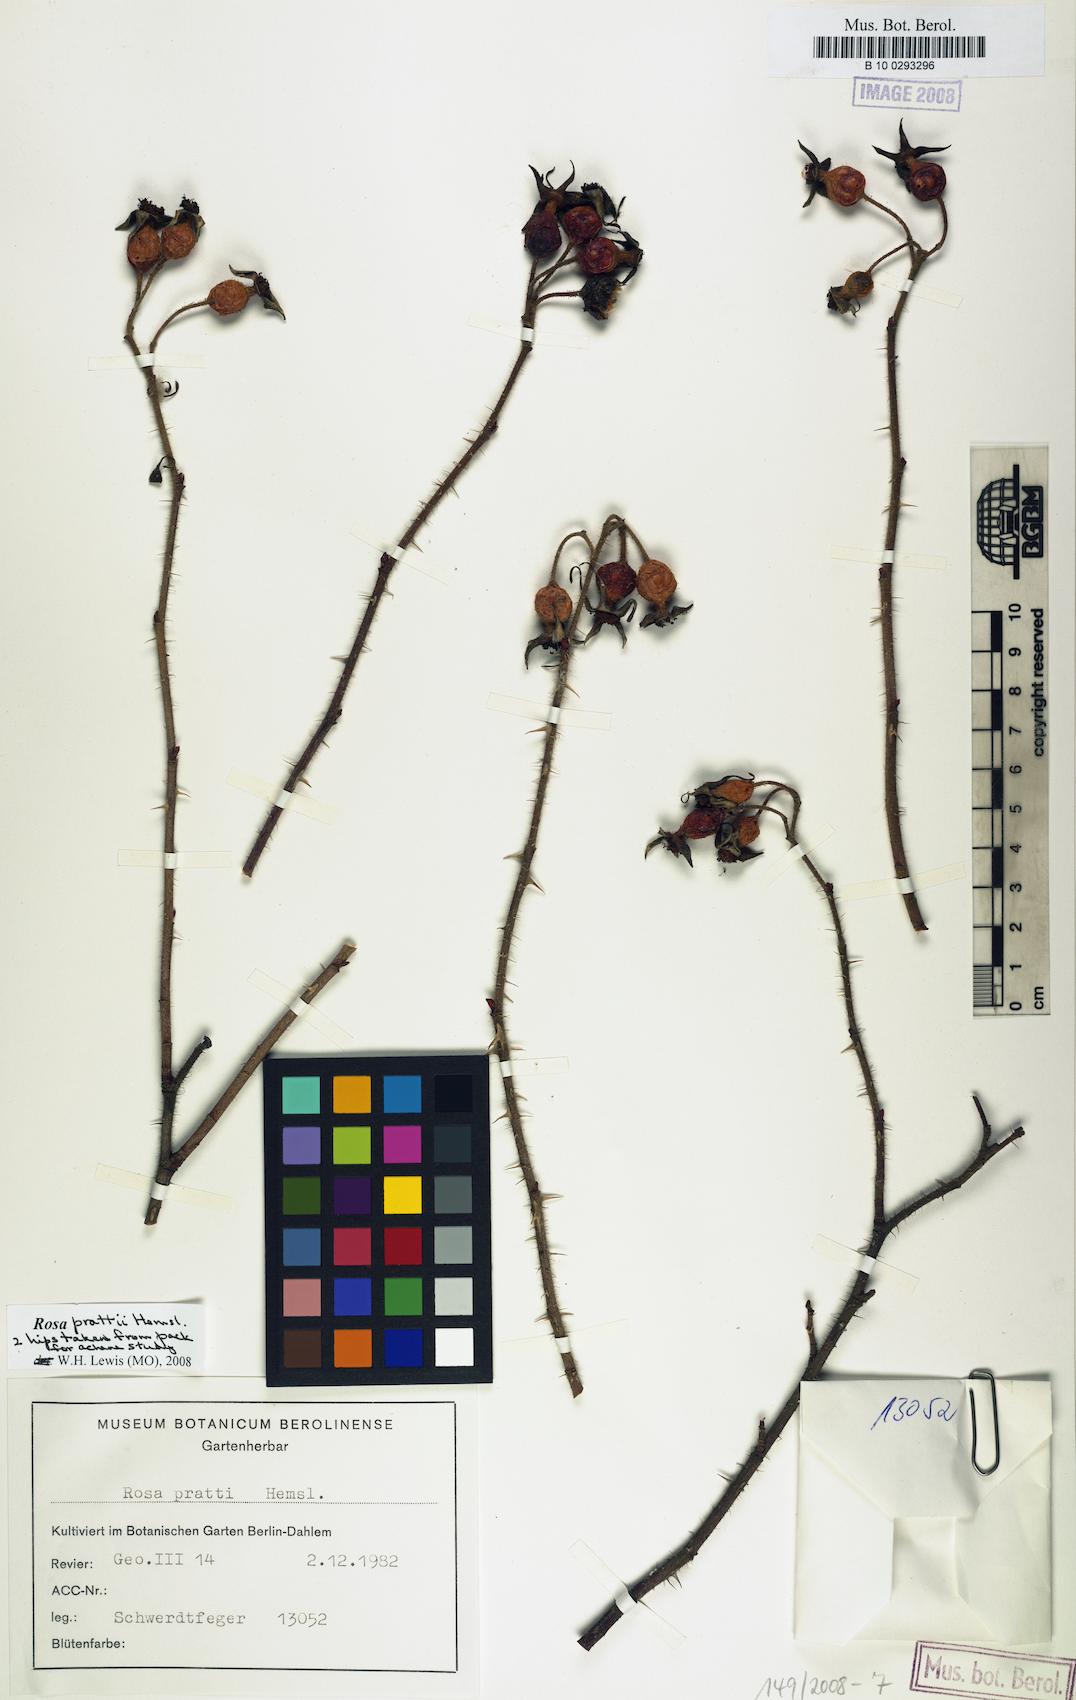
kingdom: Plantae
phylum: Tracheophyta
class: Magnoliopsida
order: Rosales
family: Rosaceae
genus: Rosa
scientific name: Rosa prattii
